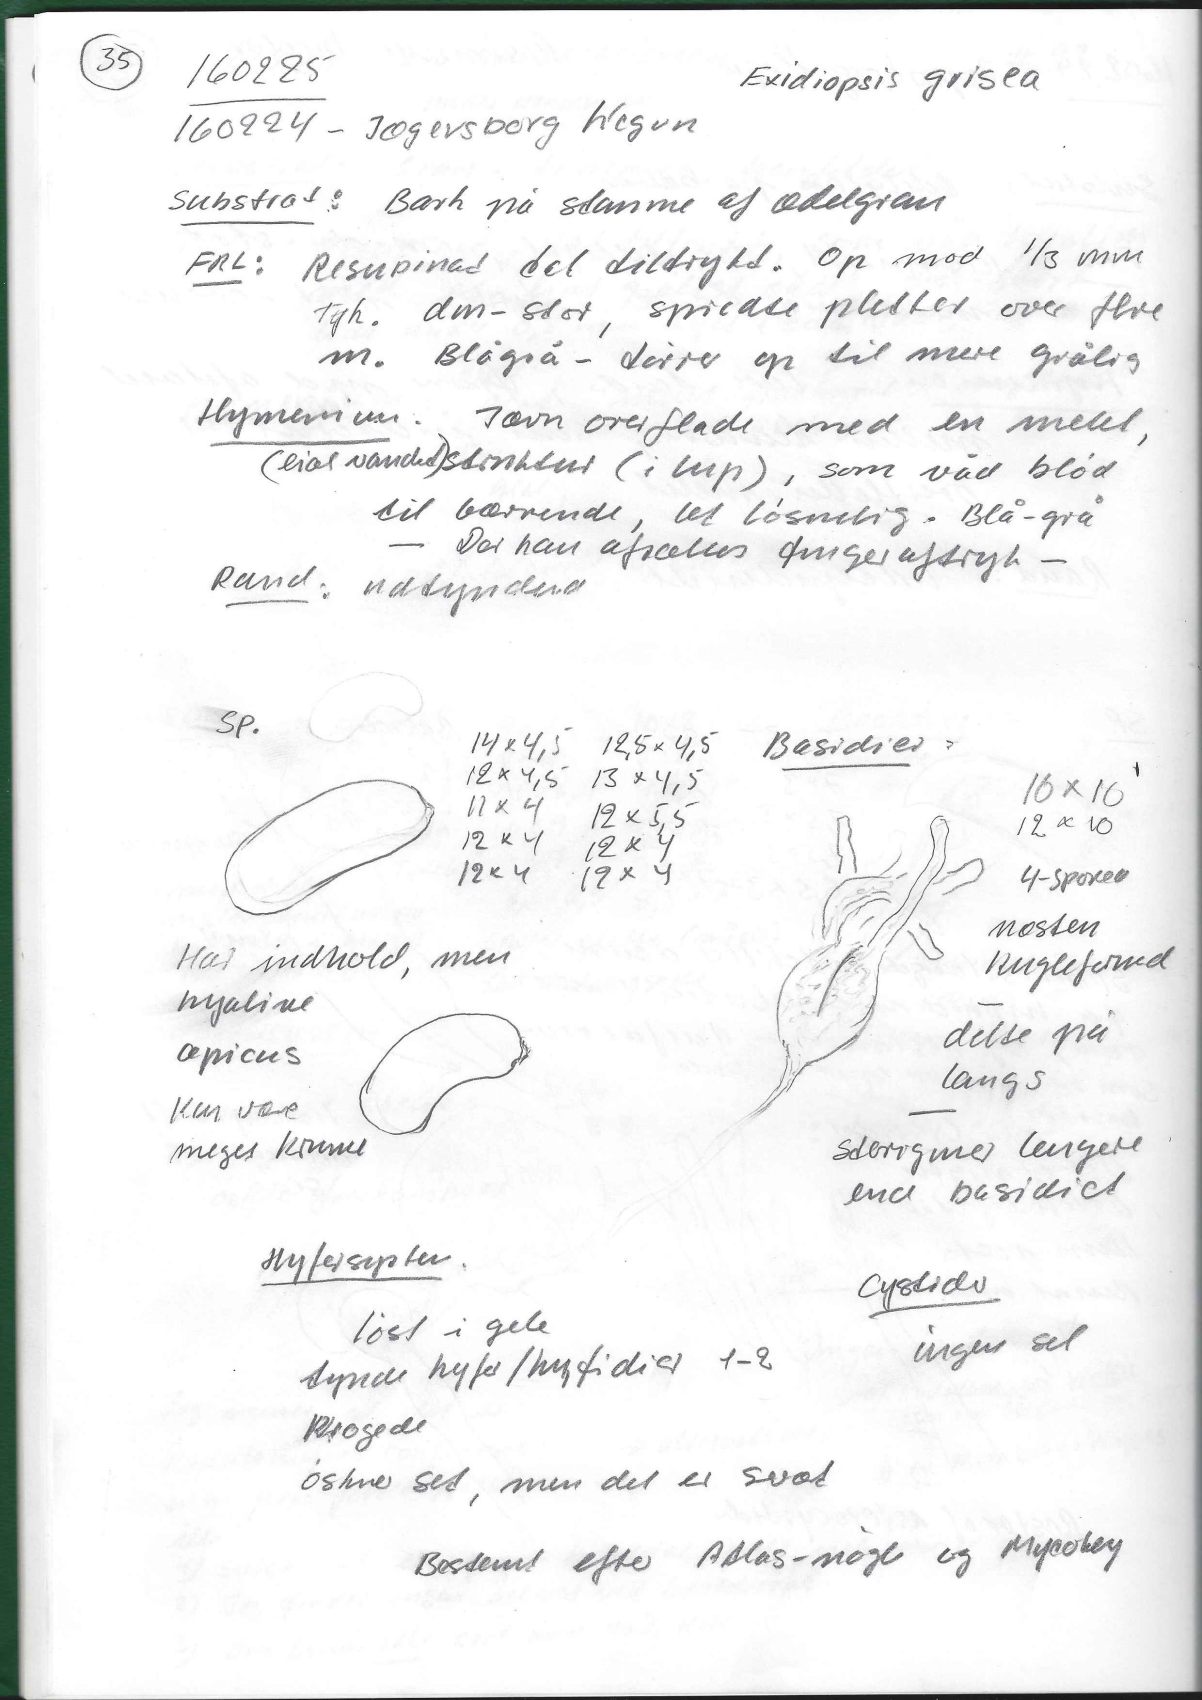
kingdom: Fungi
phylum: Basidiomycota
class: Agaricomycetes
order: Sebacinales
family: Sebacinaceae
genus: Sebacina
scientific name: Sebacina grisea
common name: blågrå bævrehinde
